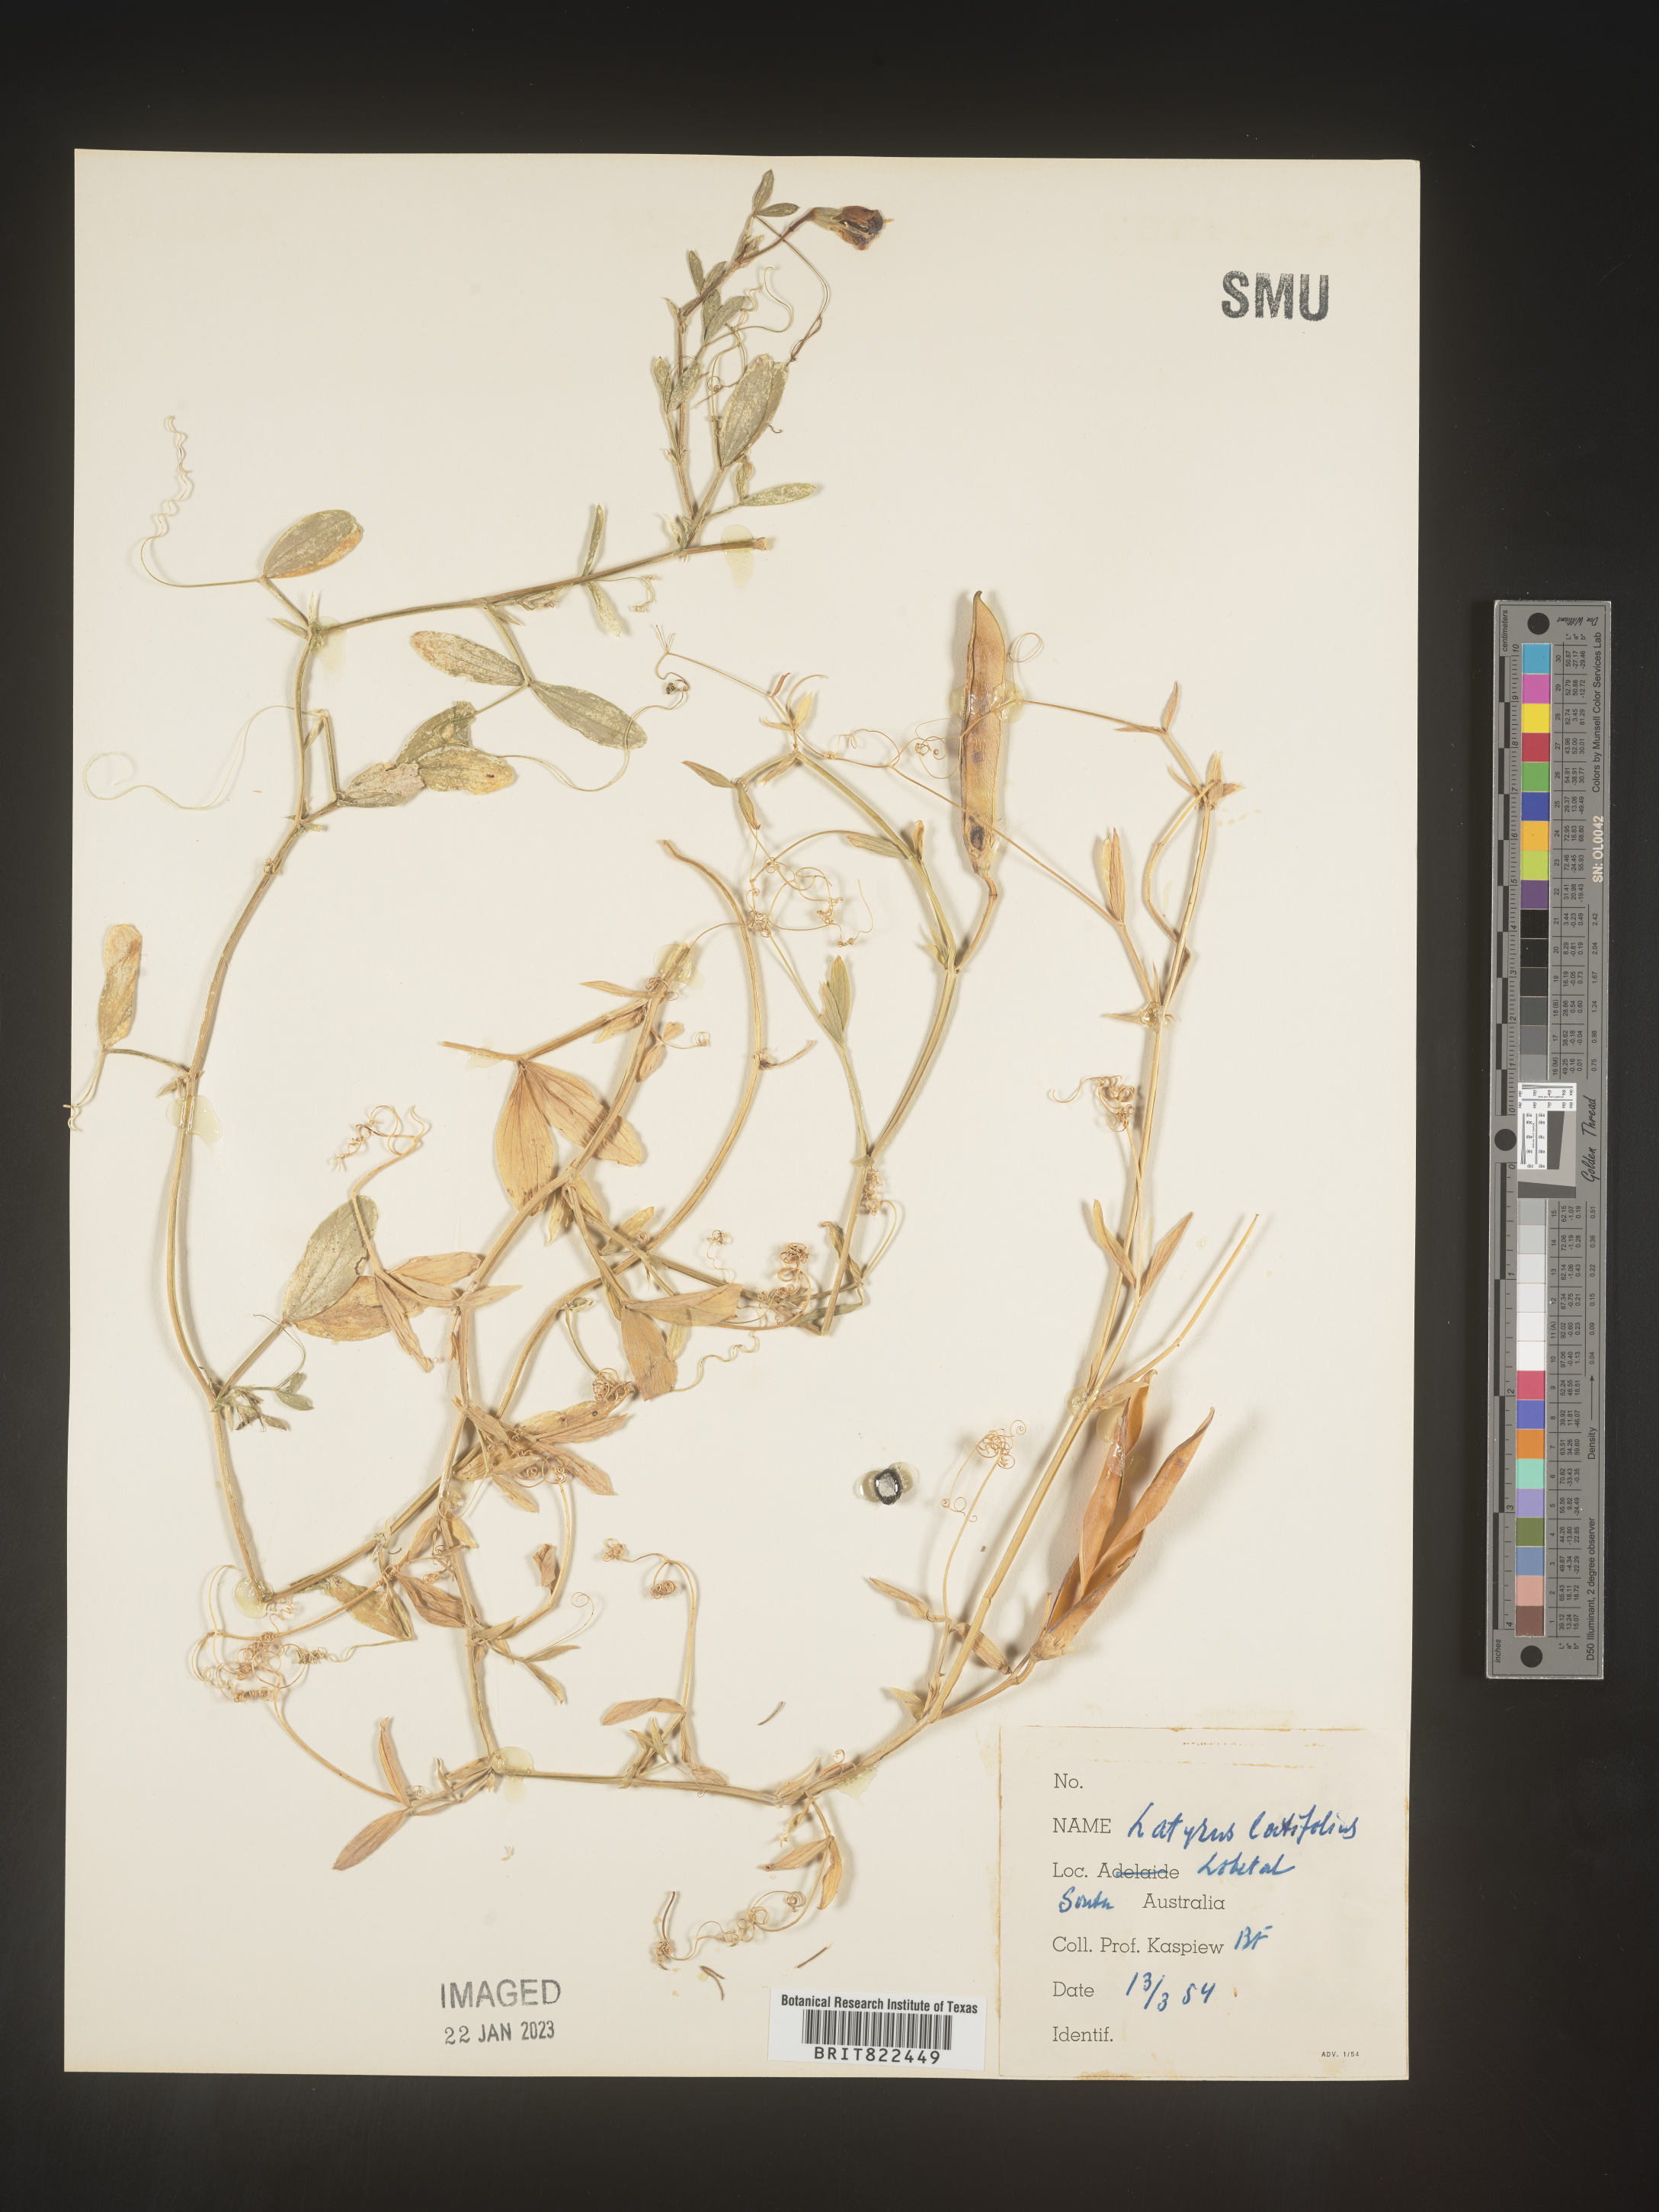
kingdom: Plantae
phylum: Tracheophyta
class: Magnoliopsida
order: Fabales
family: Fabaceae
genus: Lathyrus
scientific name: Lathyrus
